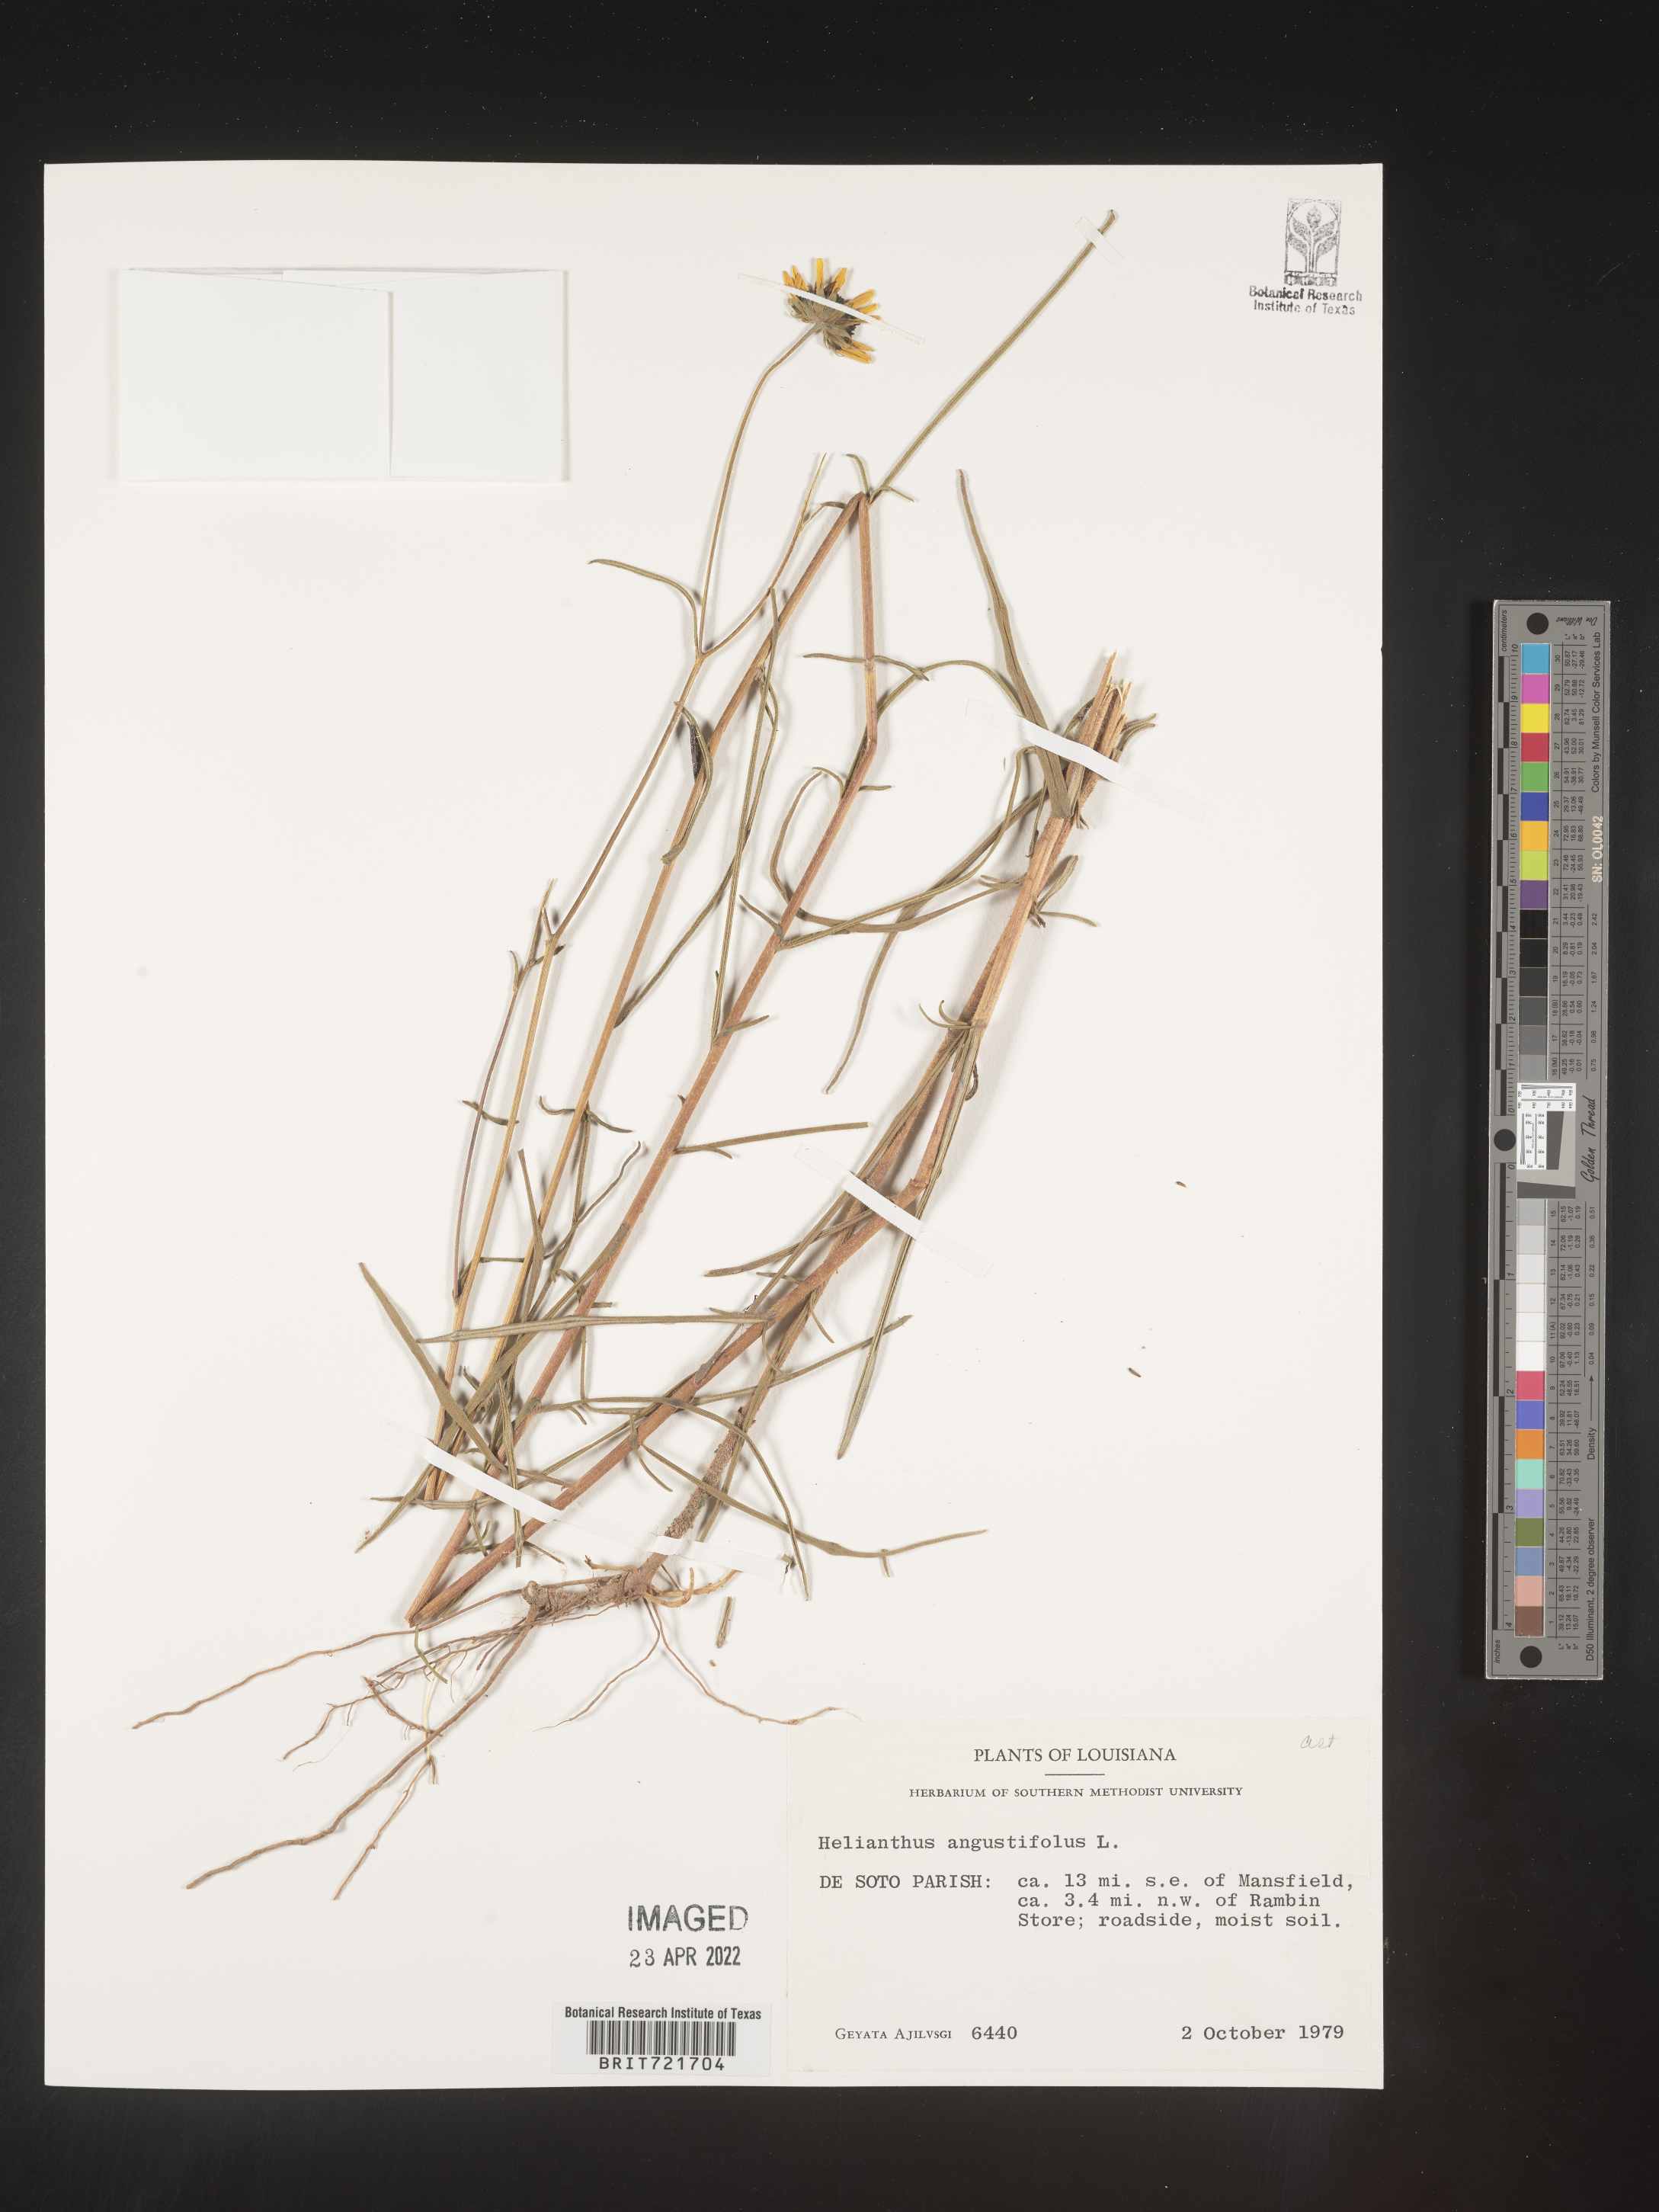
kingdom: Plantae
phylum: Tracheophyta
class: Magnoliopsida
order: Asterales
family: Asteraceae
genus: Helianthus
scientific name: Helianthus angustifolius
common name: Swamp sunflower
